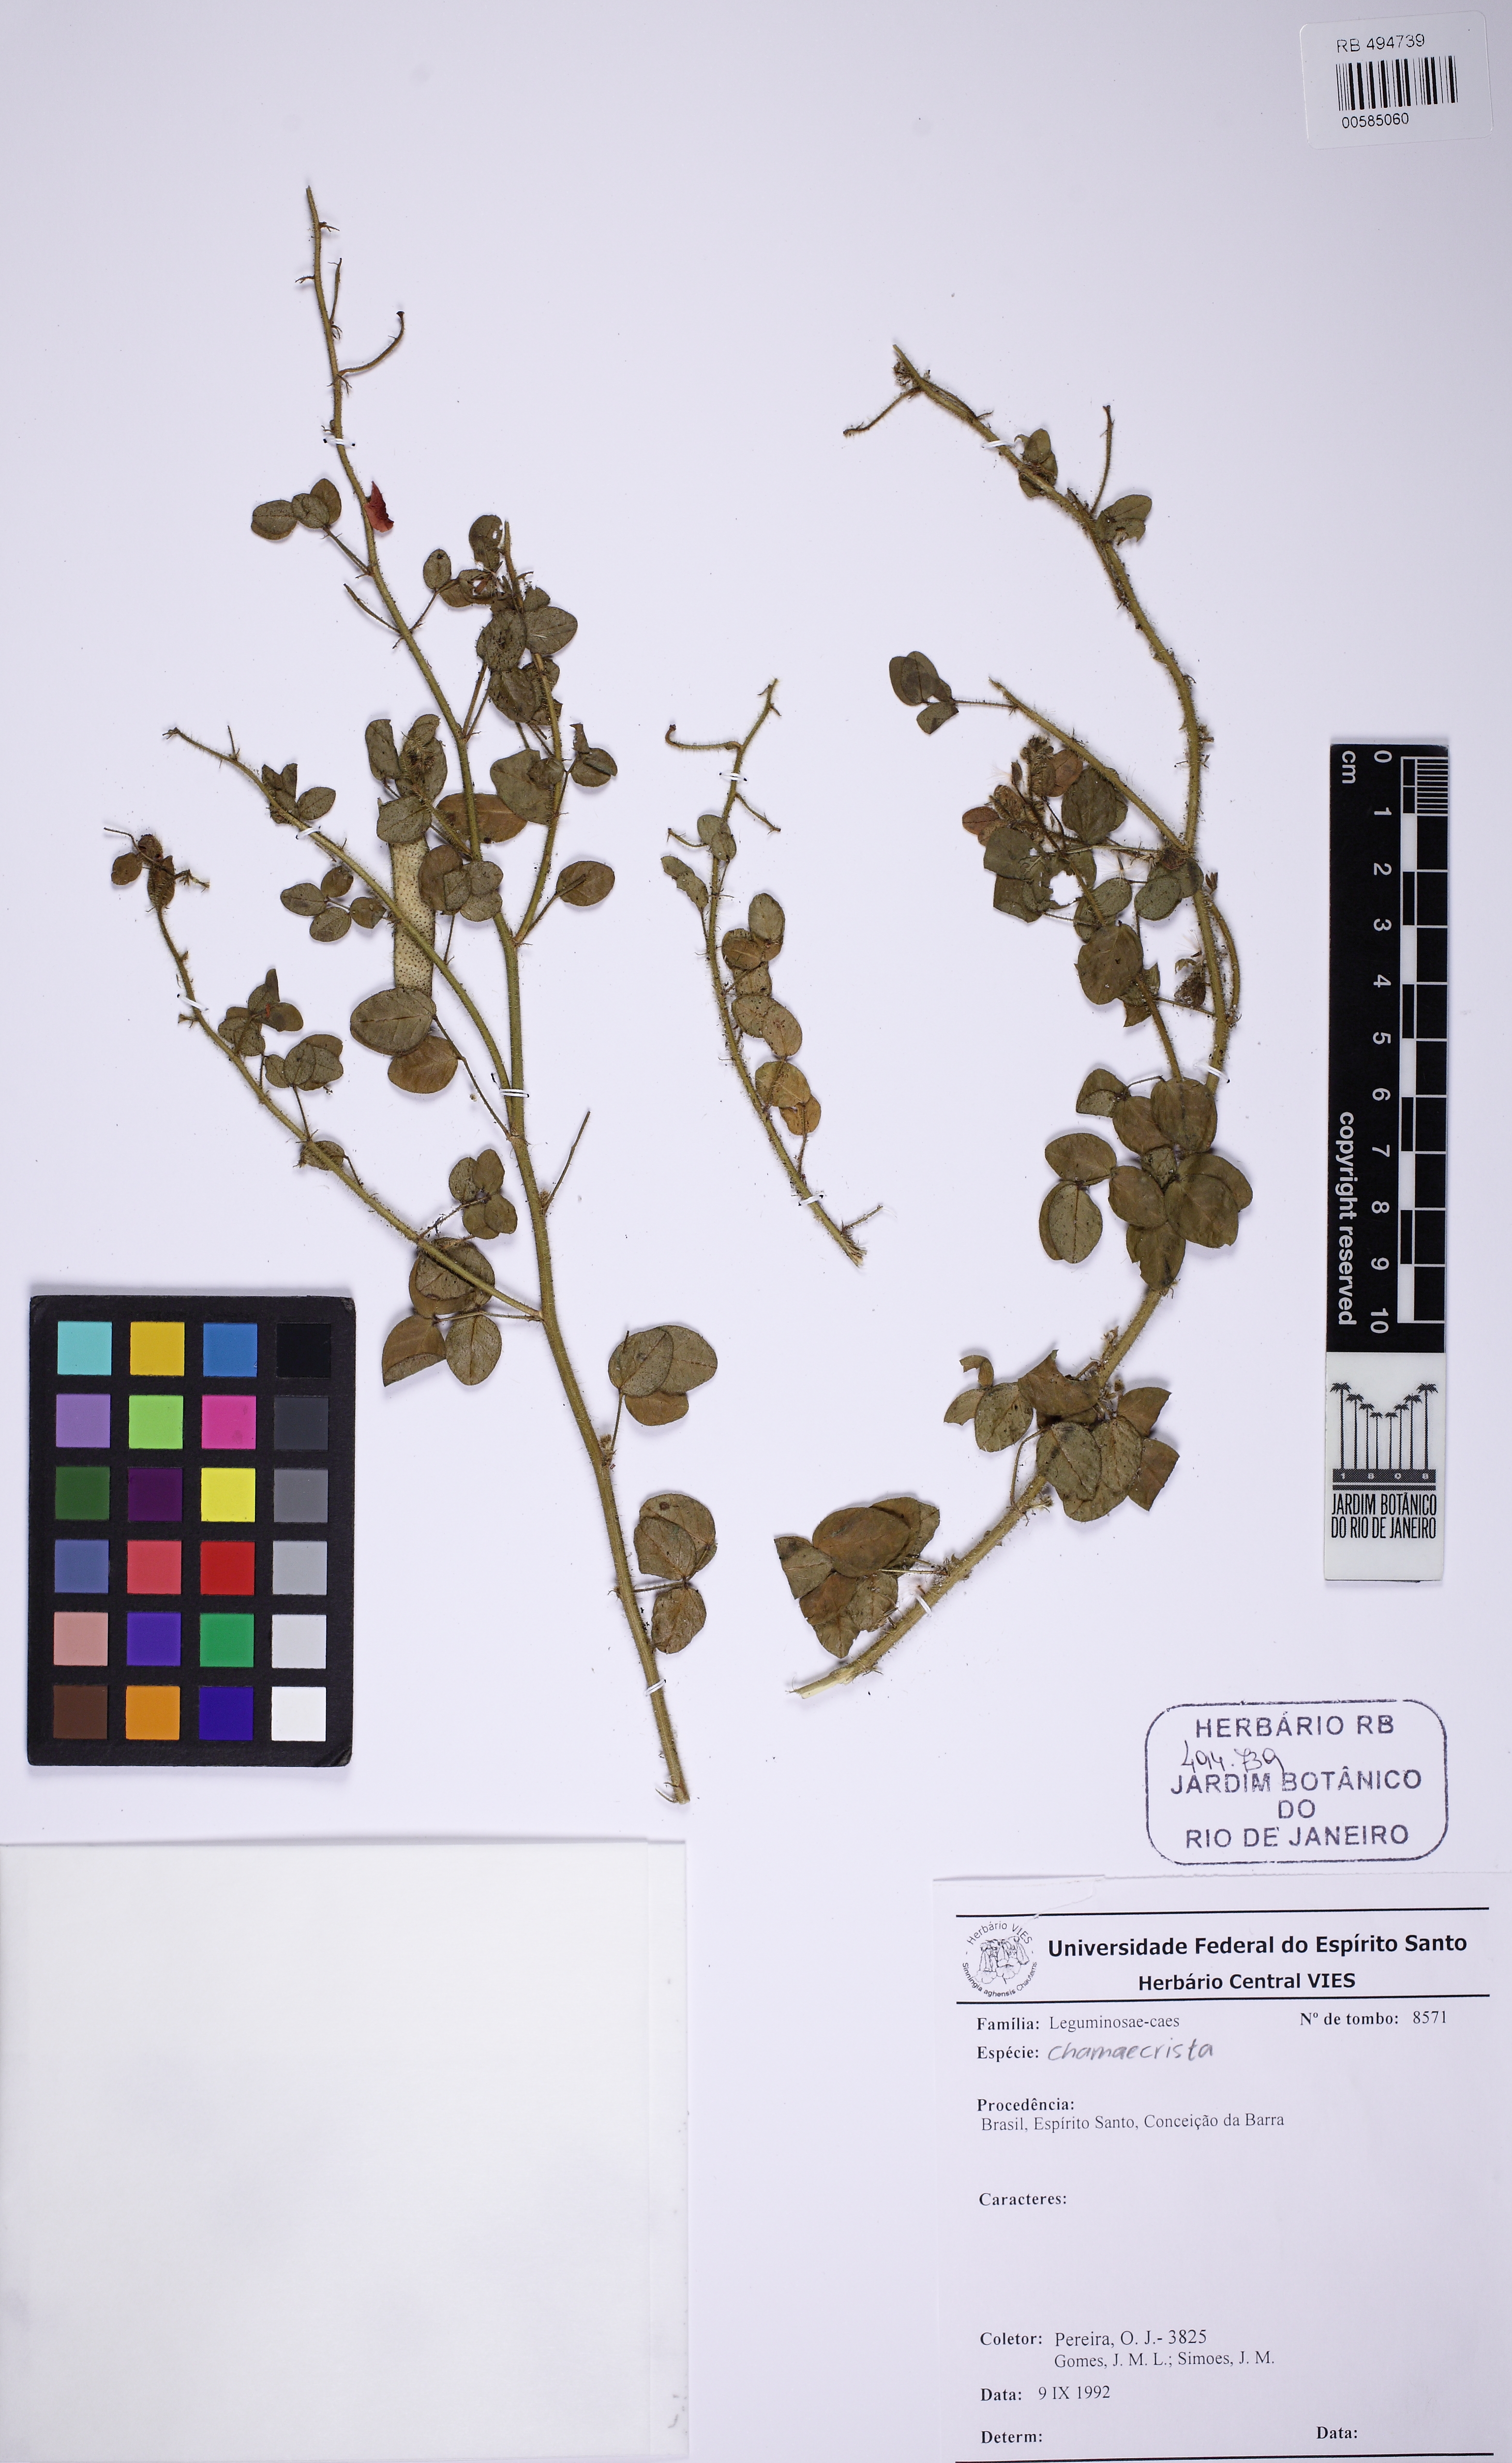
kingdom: Plantae
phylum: Tracheophyta
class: Magnoliopsida
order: Fabales
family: Fabaceae
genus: Chamaecrista
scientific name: Chamaecrista
